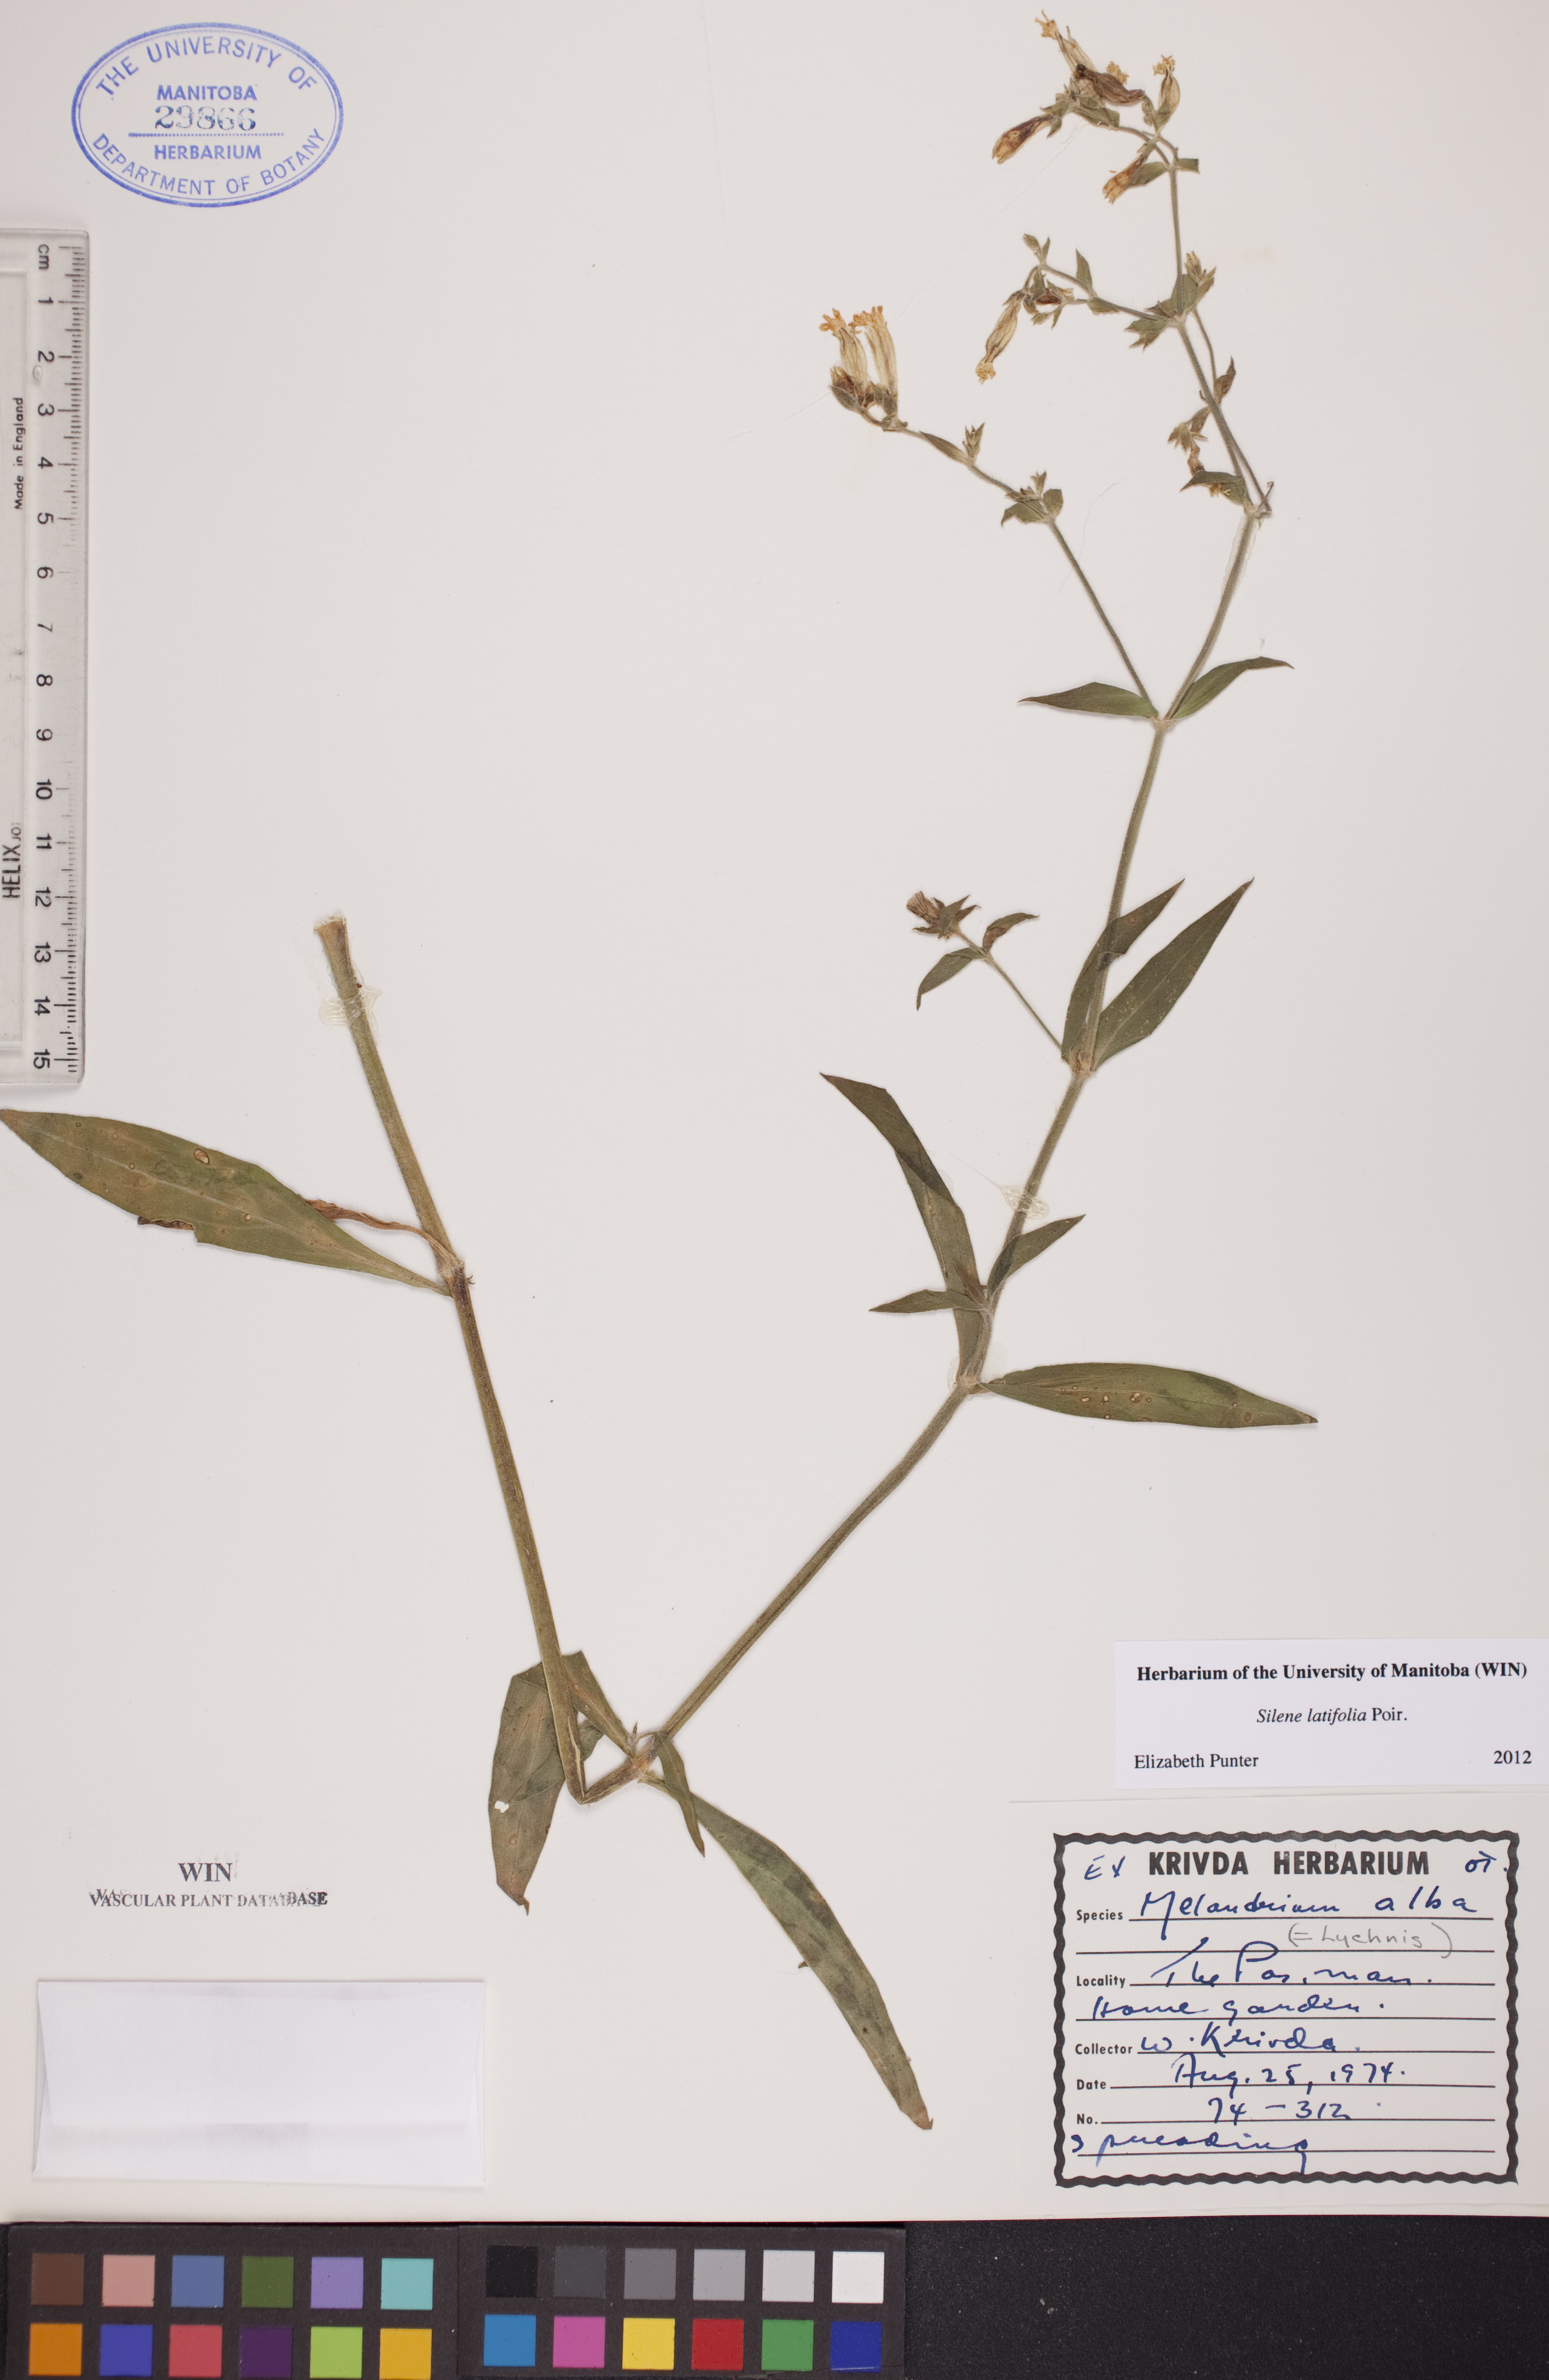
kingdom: Plantae
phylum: Tracheophyta
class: Magnoliopsida
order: Caryophyllales
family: Caryophyllaceae
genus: Silene
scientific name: Silene latifolia
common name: White campion
